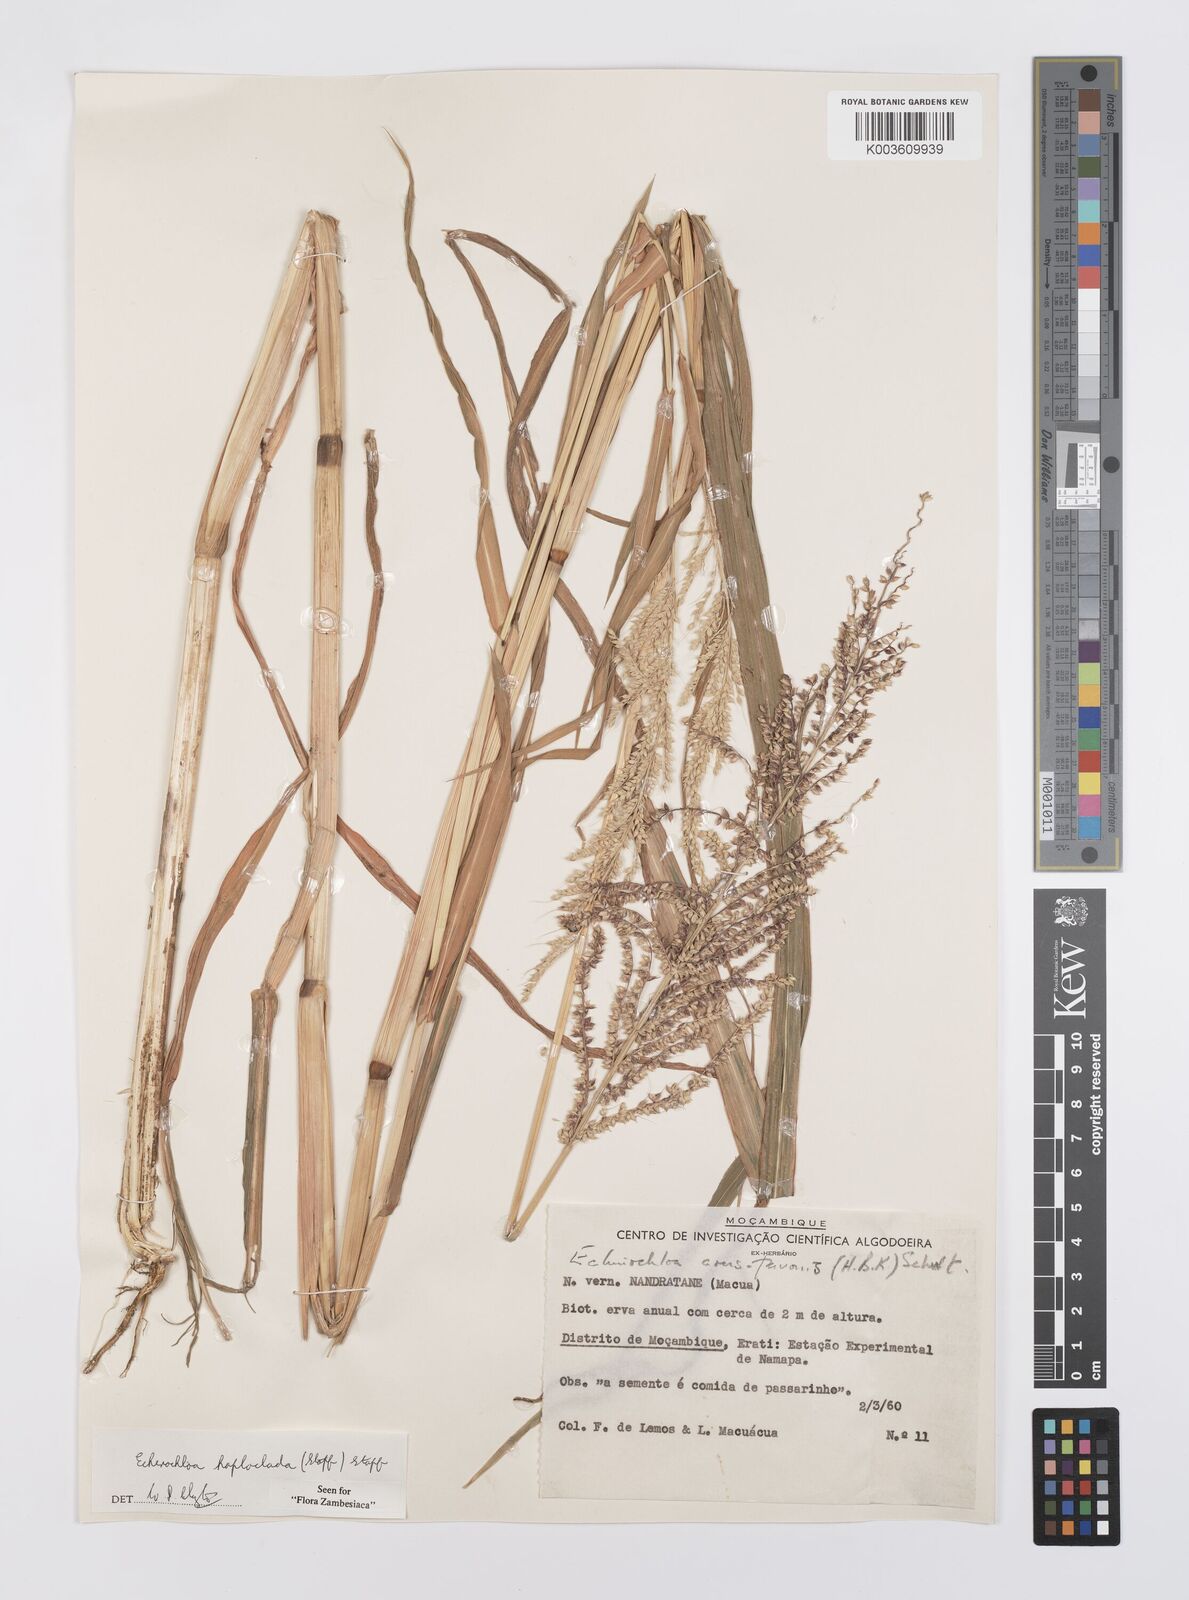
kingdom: Plantae
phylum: Tracheophyta
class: Liliopsida
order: Poales
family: Poaceae
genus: Echinochloa
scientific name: Echinochloa haploclada
